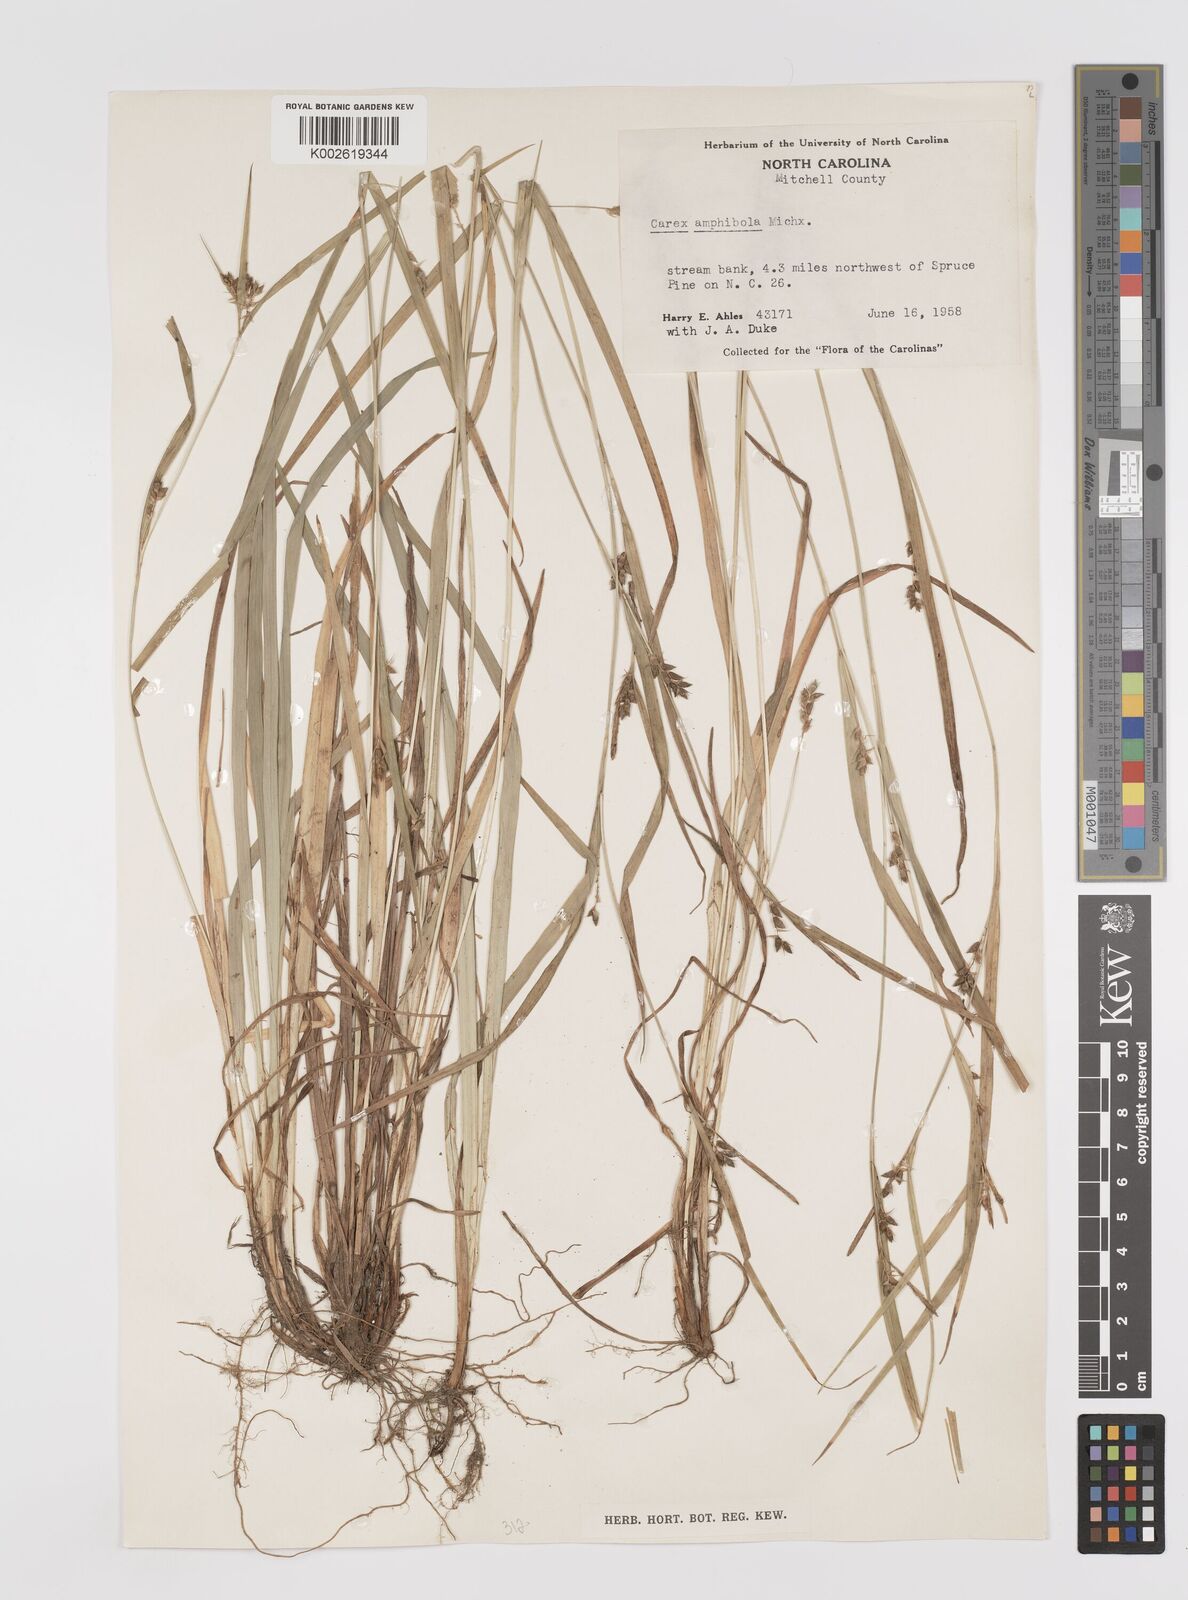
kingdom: Plantae
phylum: Tracheophyta
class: Liliopsida
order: Poales
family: Cyperaceae
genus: Carex
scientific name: Carex amphibola
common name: Amphibious sedge
